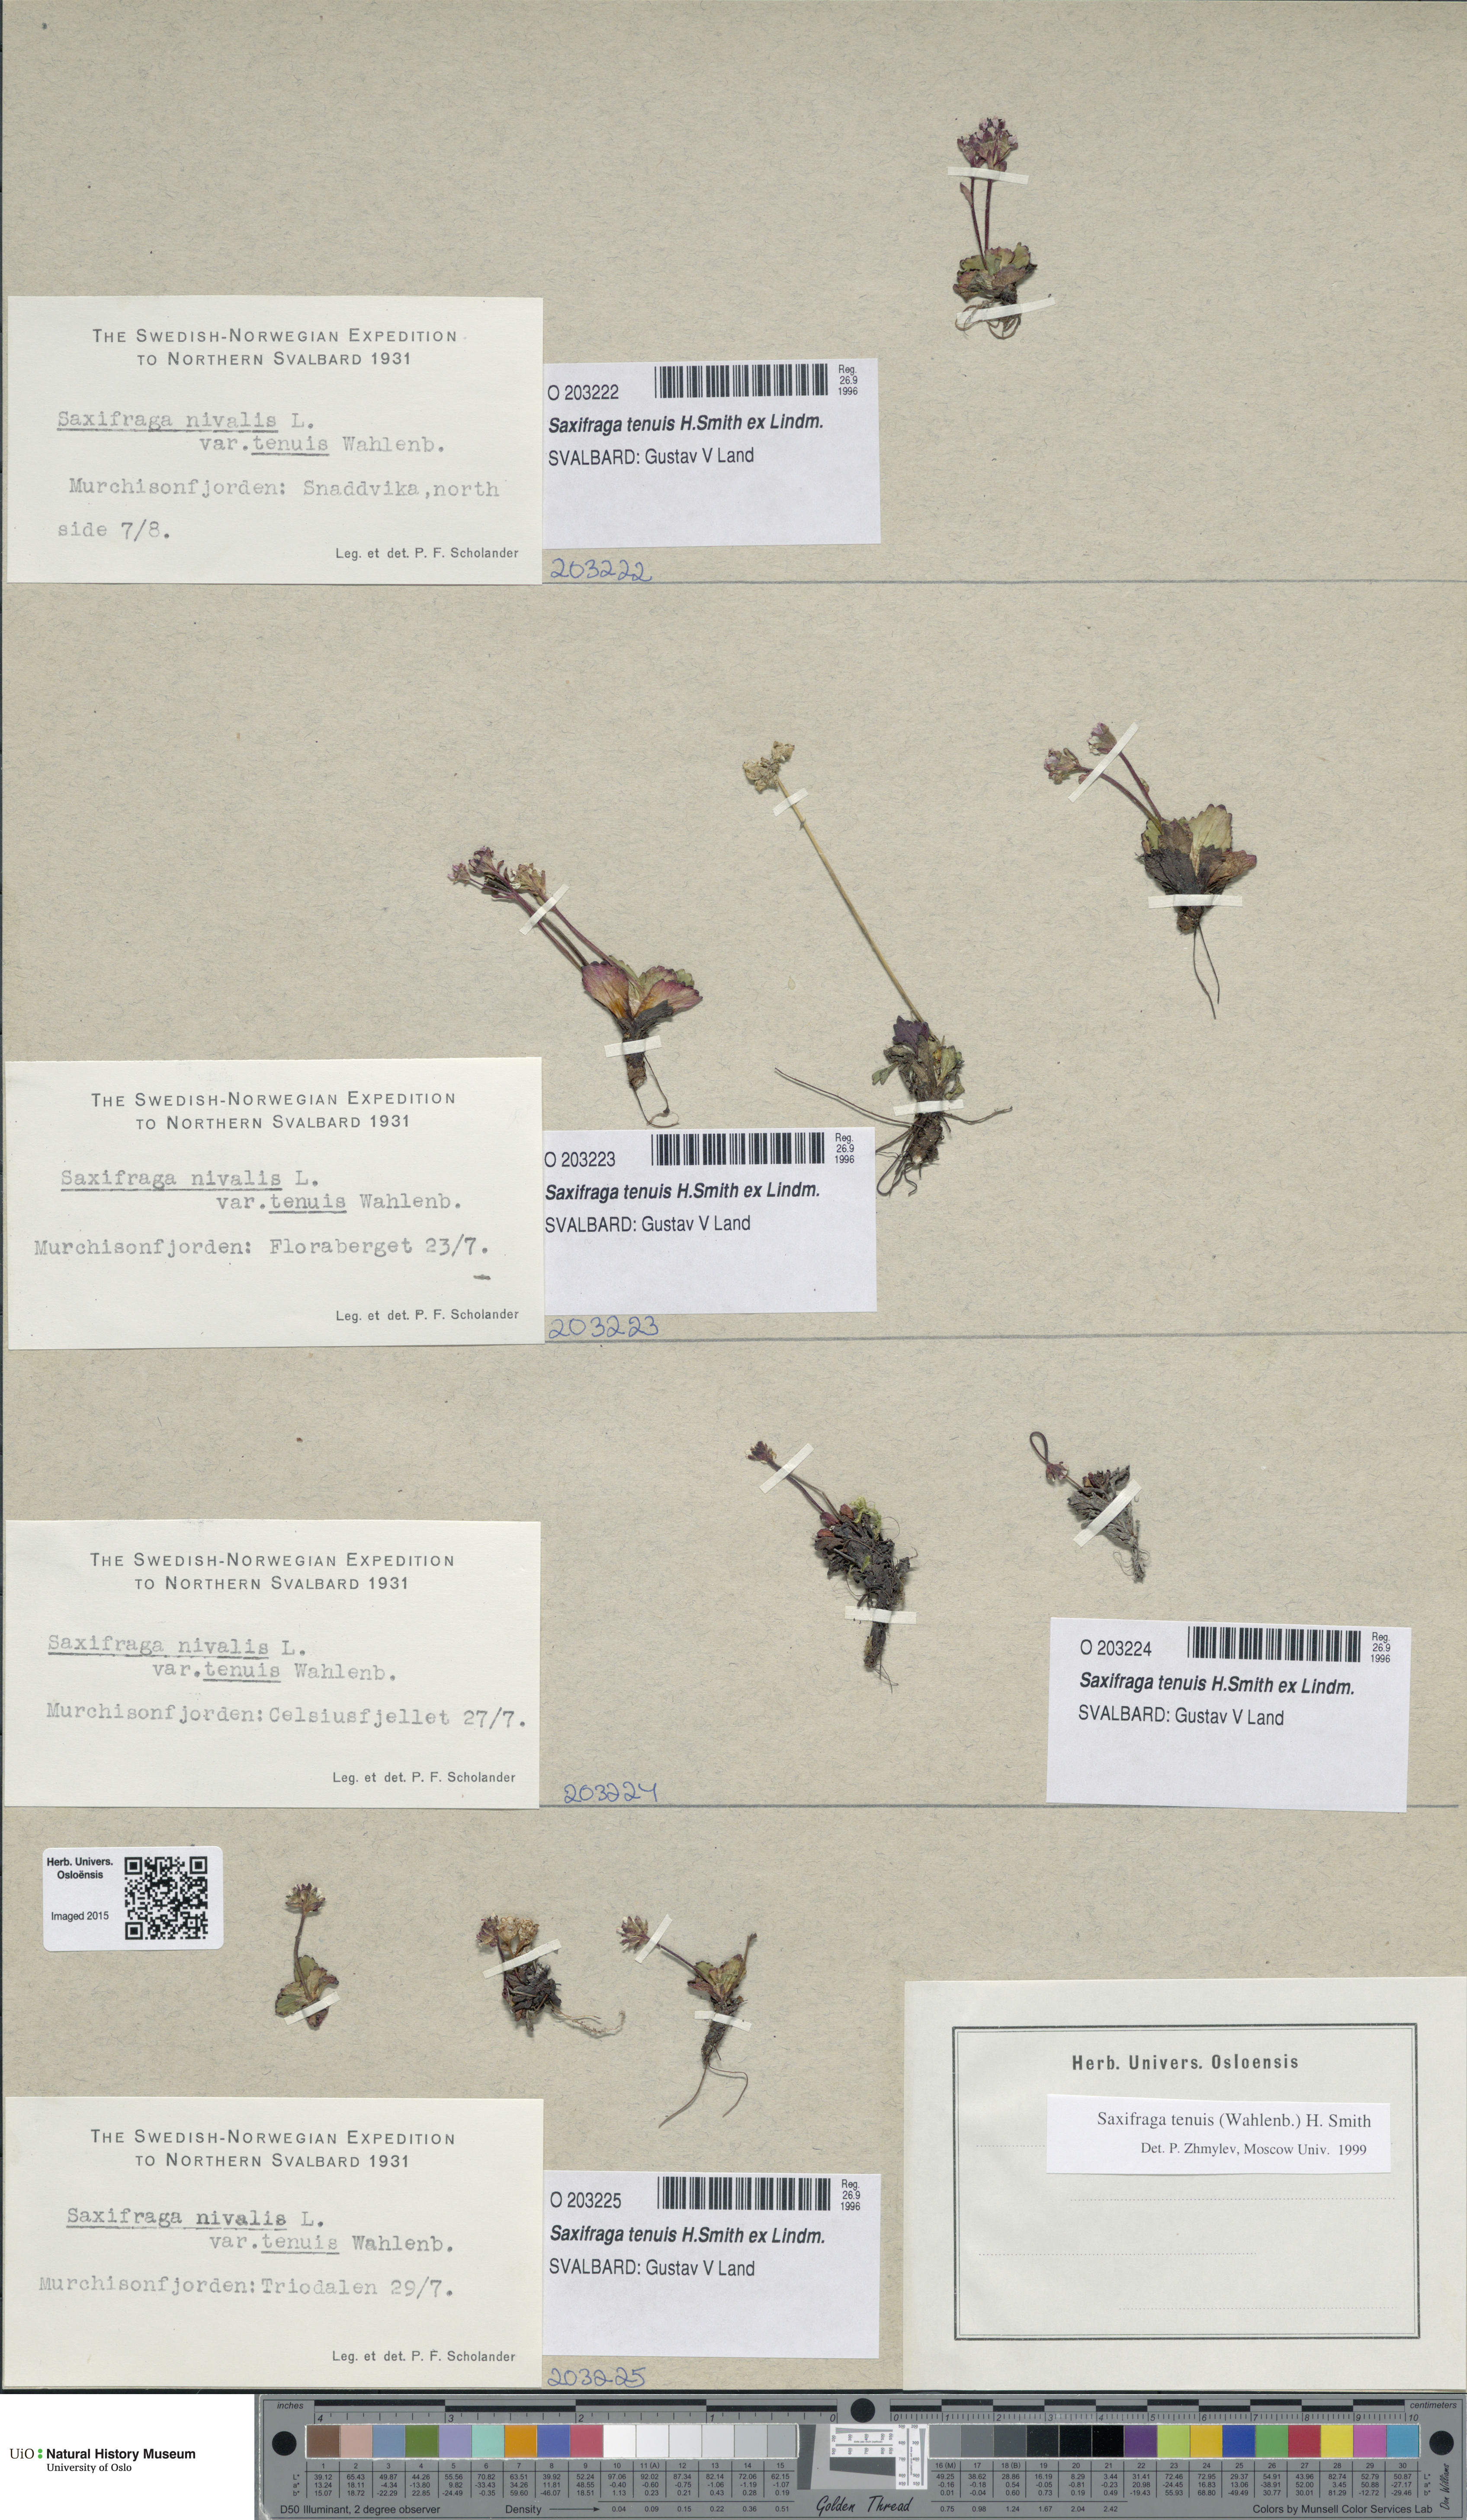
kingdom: Plantae
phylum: Tracheophyta
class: Magnoliopsida
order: Saxifragales
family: Saxifragaceae
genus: Micranthes
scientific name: Micranthes tenuis
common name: Ottertail pass saxifrage
